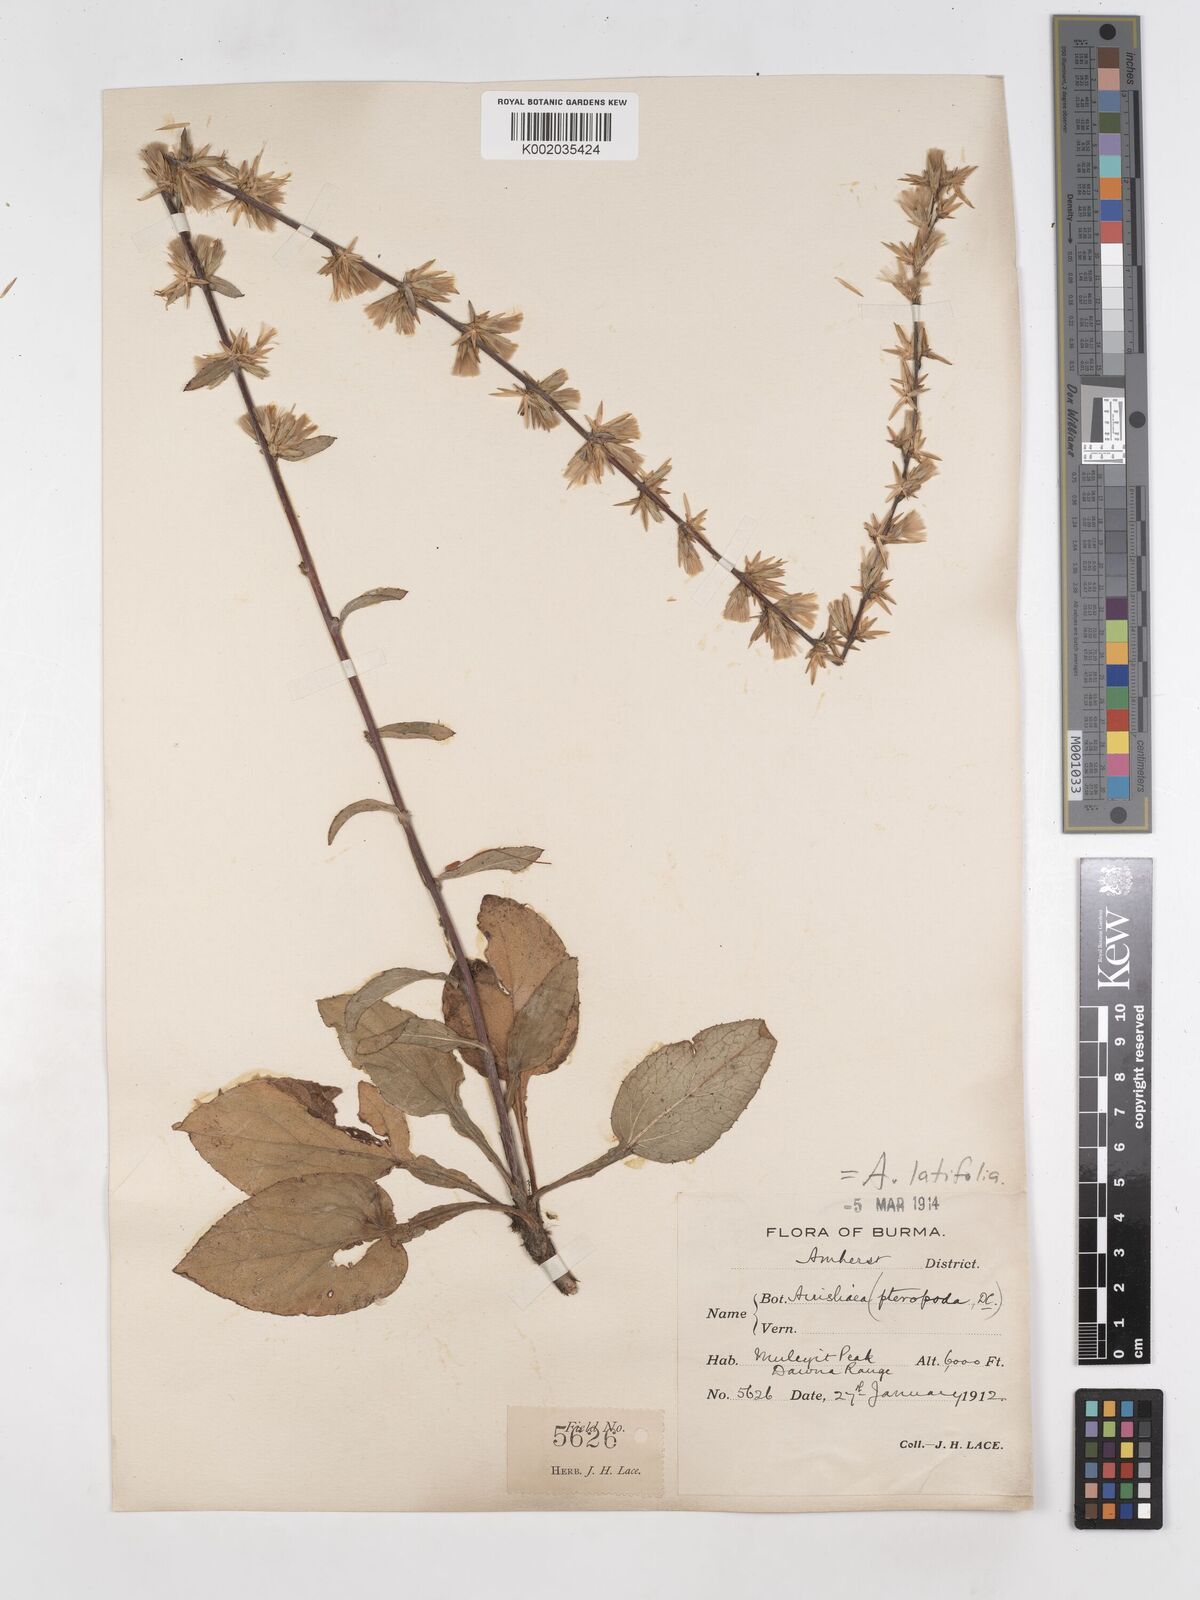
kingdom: Plantae
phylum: Tracheophyta
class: Magnoliopsida
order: Asterales
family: Asteraceae
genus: Ainsliaea
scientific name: Ainsliaea latifolia
